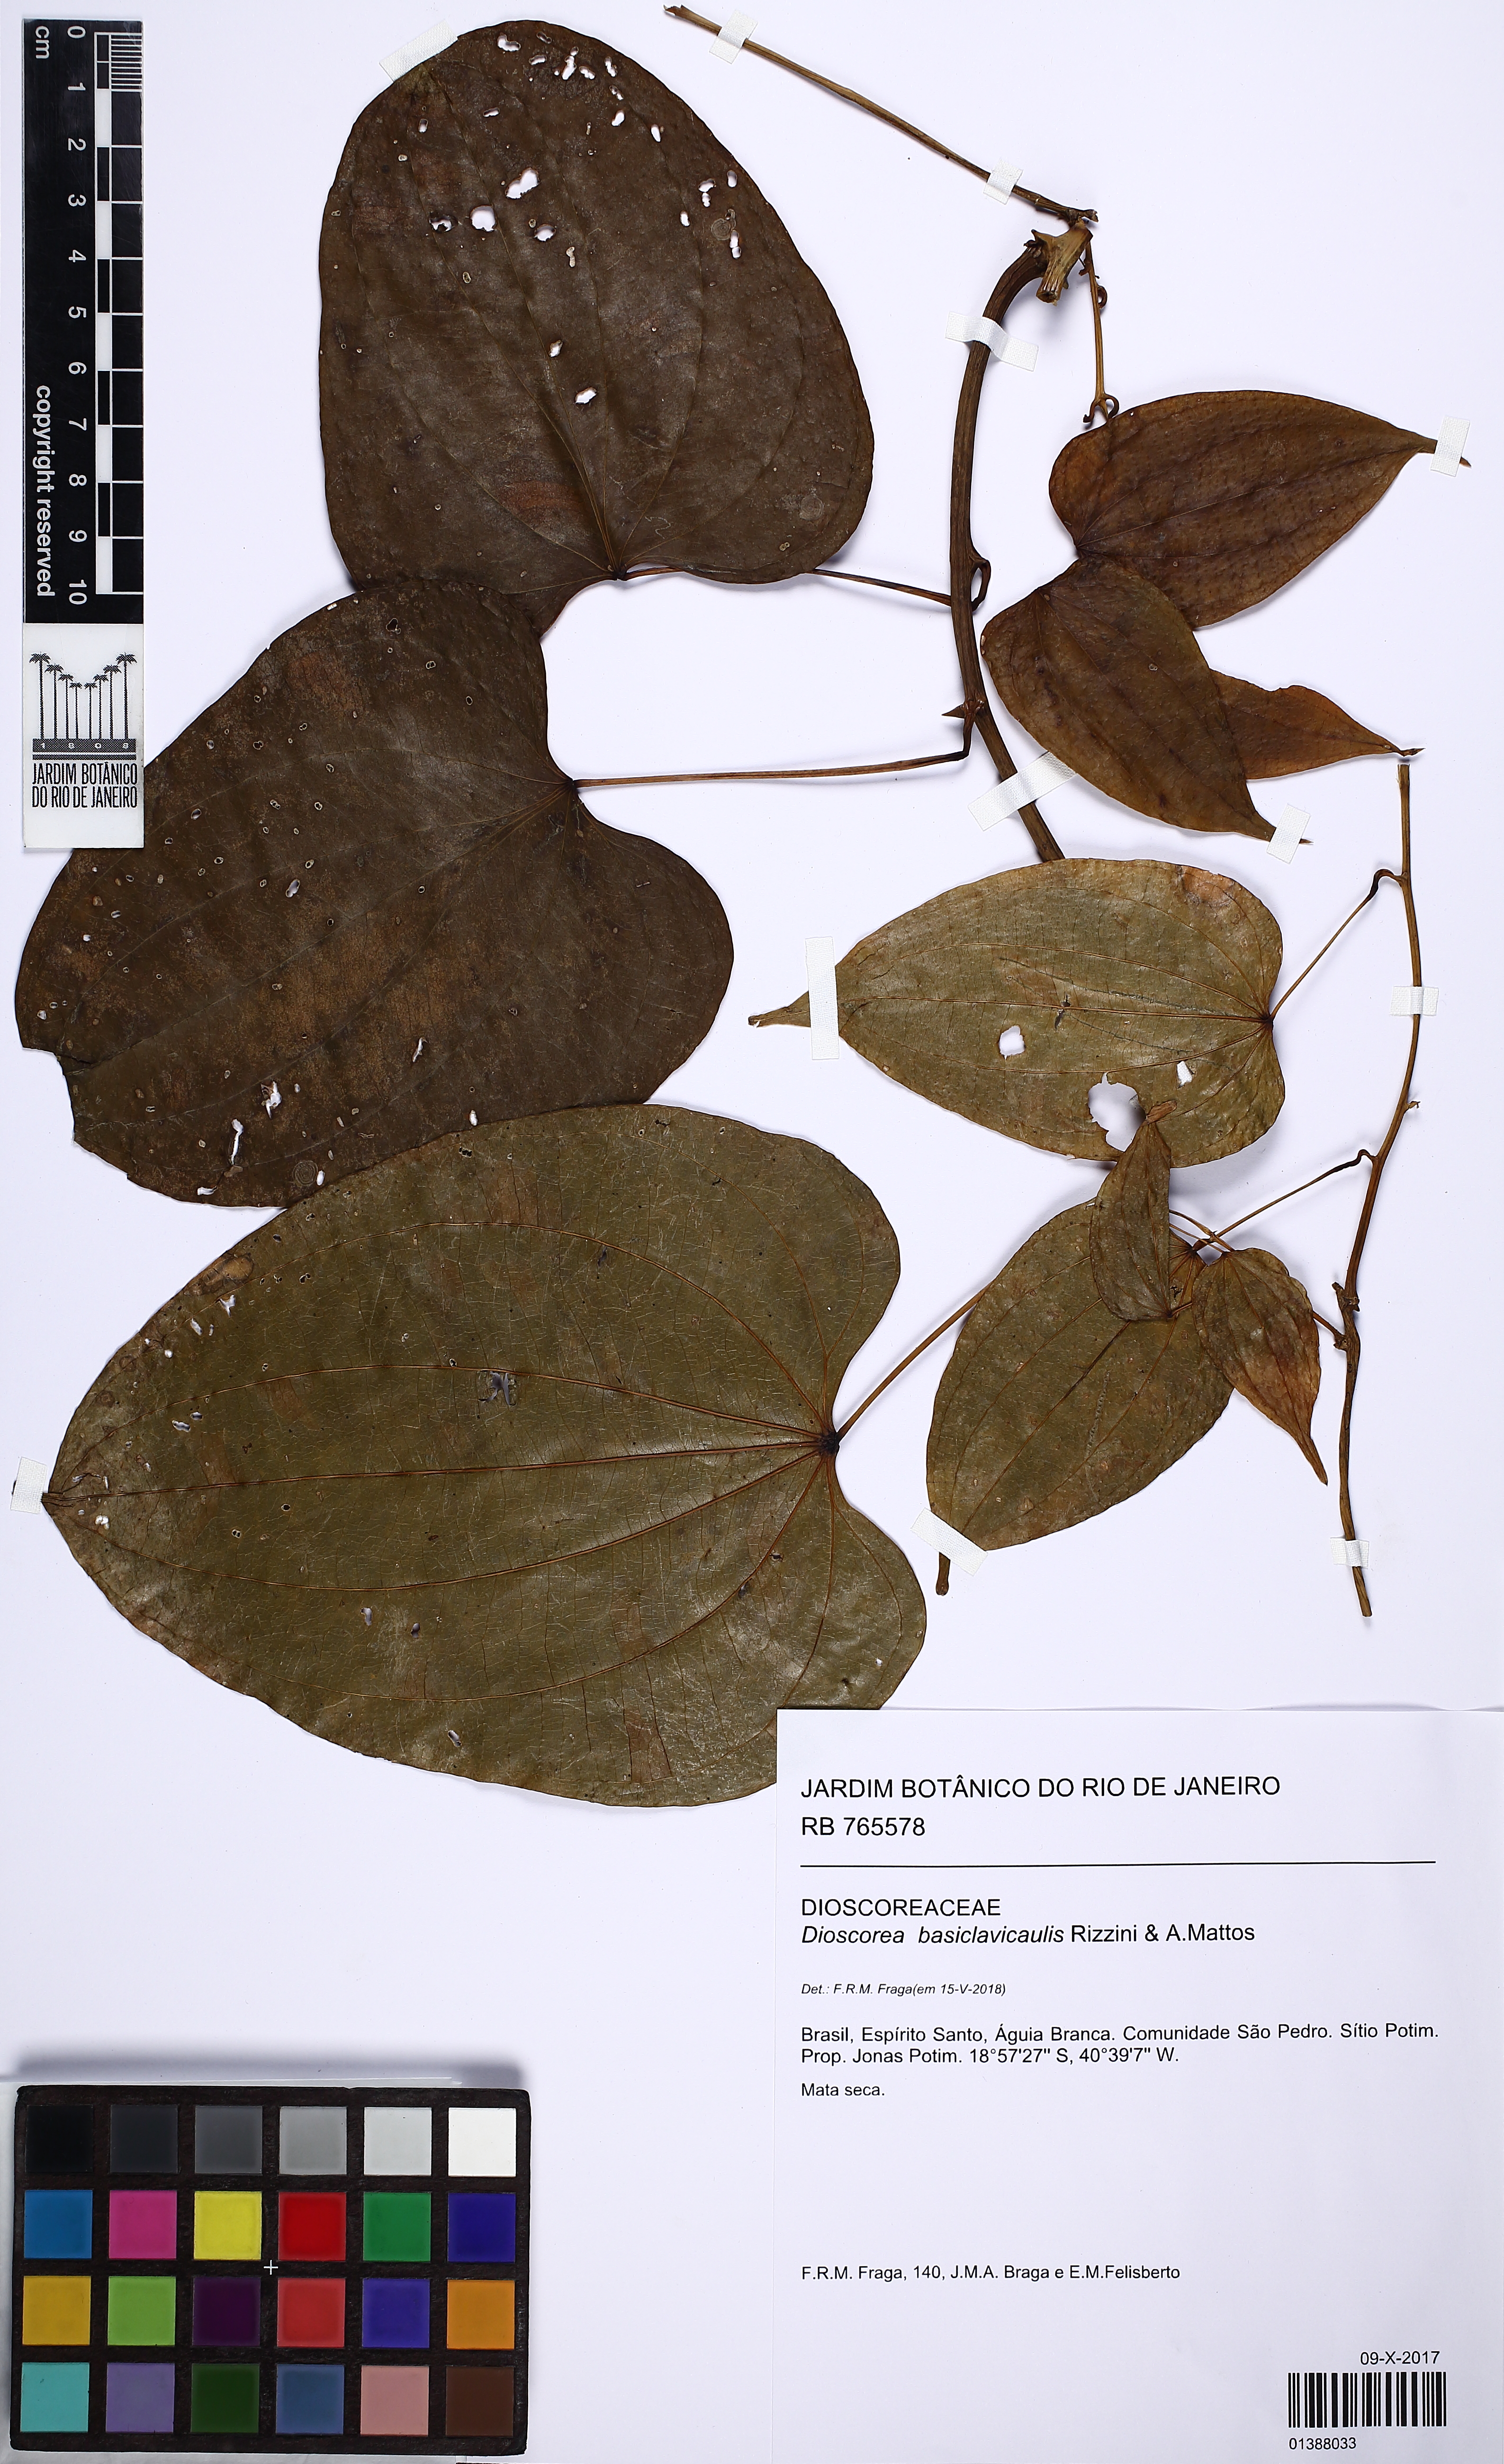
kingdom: Plantae
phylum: Tracheophyta
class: Liliopsida
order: Dioscoreales
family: Dioscoreaceae
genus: Dioscorea
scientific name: Dioscorea basiclavicaulis
